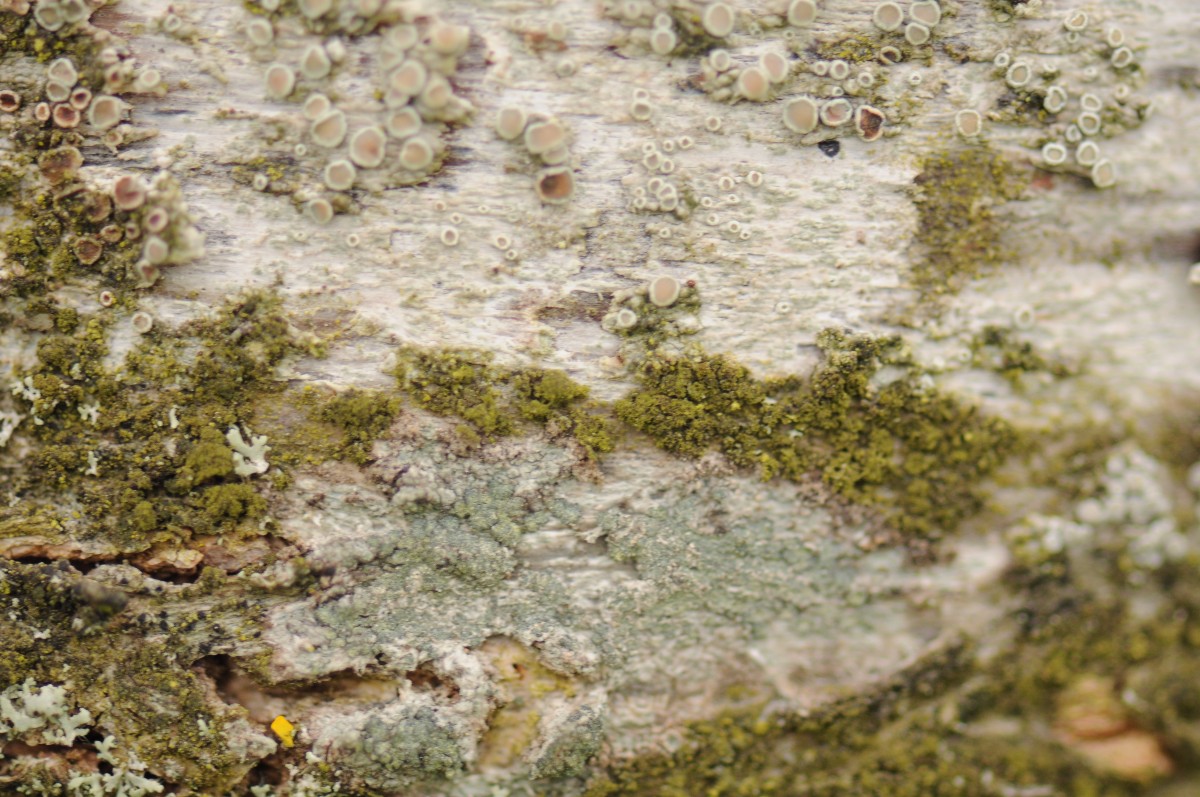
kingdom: Fungi
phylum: Ascomycota
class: Lecanoromycetes
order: Caliciales
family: Caliciaceae
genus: Buellia
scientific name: Buellia griseovirens
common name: grågrøn sortskivelav
